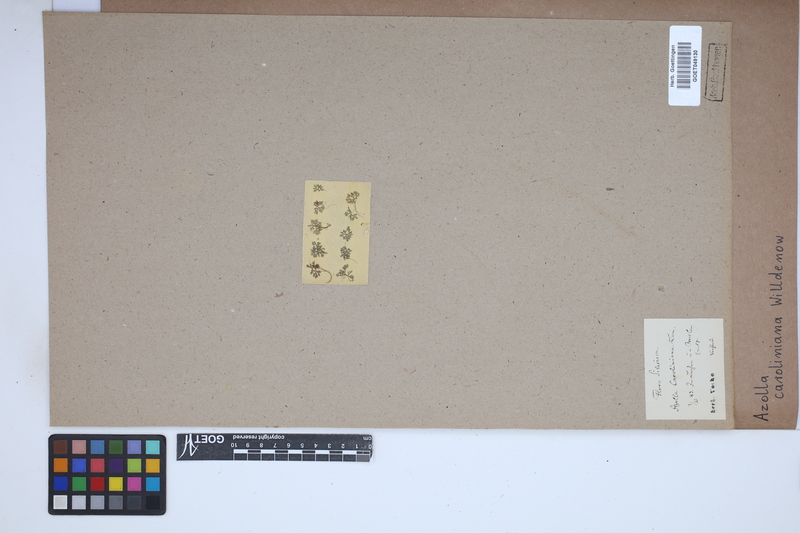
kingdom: Plantae
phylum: Tracheophyta
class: Polypodiopsida
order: Salviniales
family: Salviniaceae
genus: Azolla
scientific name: Azolla caroliniana
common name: Carolina mosquitofern
